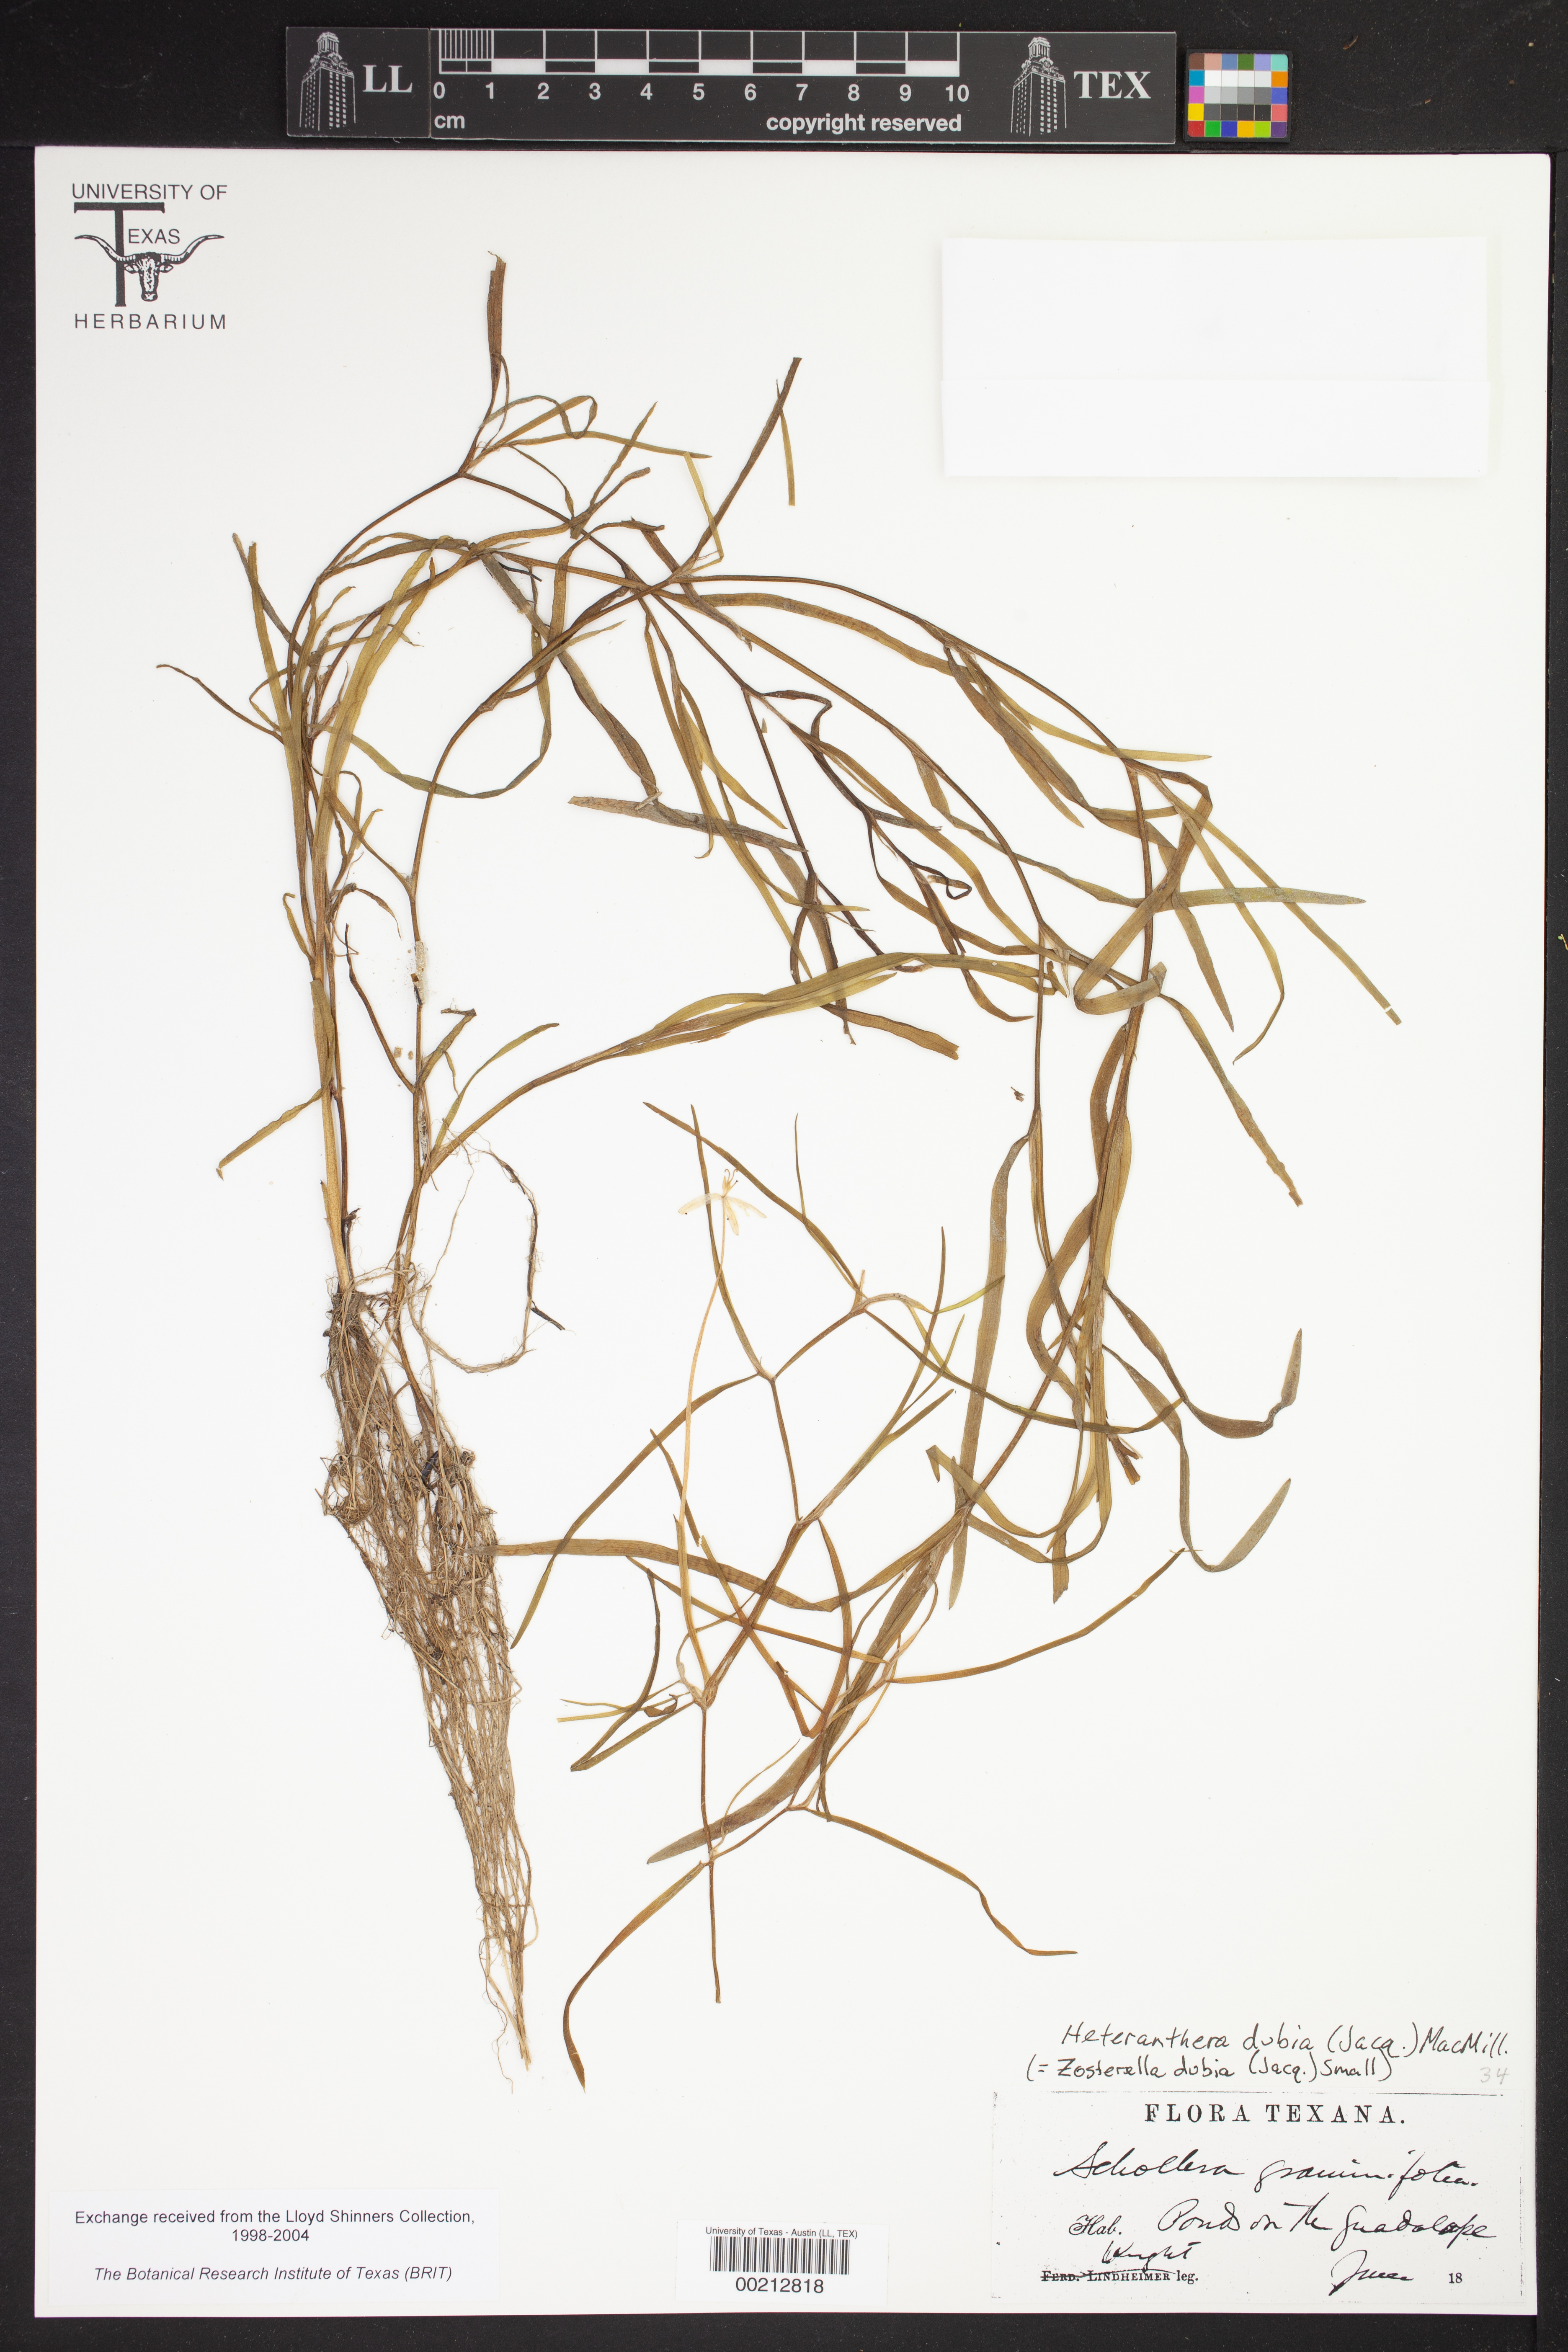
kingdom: Plantae
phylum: Tracheophyta
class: Liliopsida
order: Commelinales
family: Pontederiaceae
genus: Heteranthera
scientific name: Heteranthera dubia
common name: Grass-leaved mud plantain
